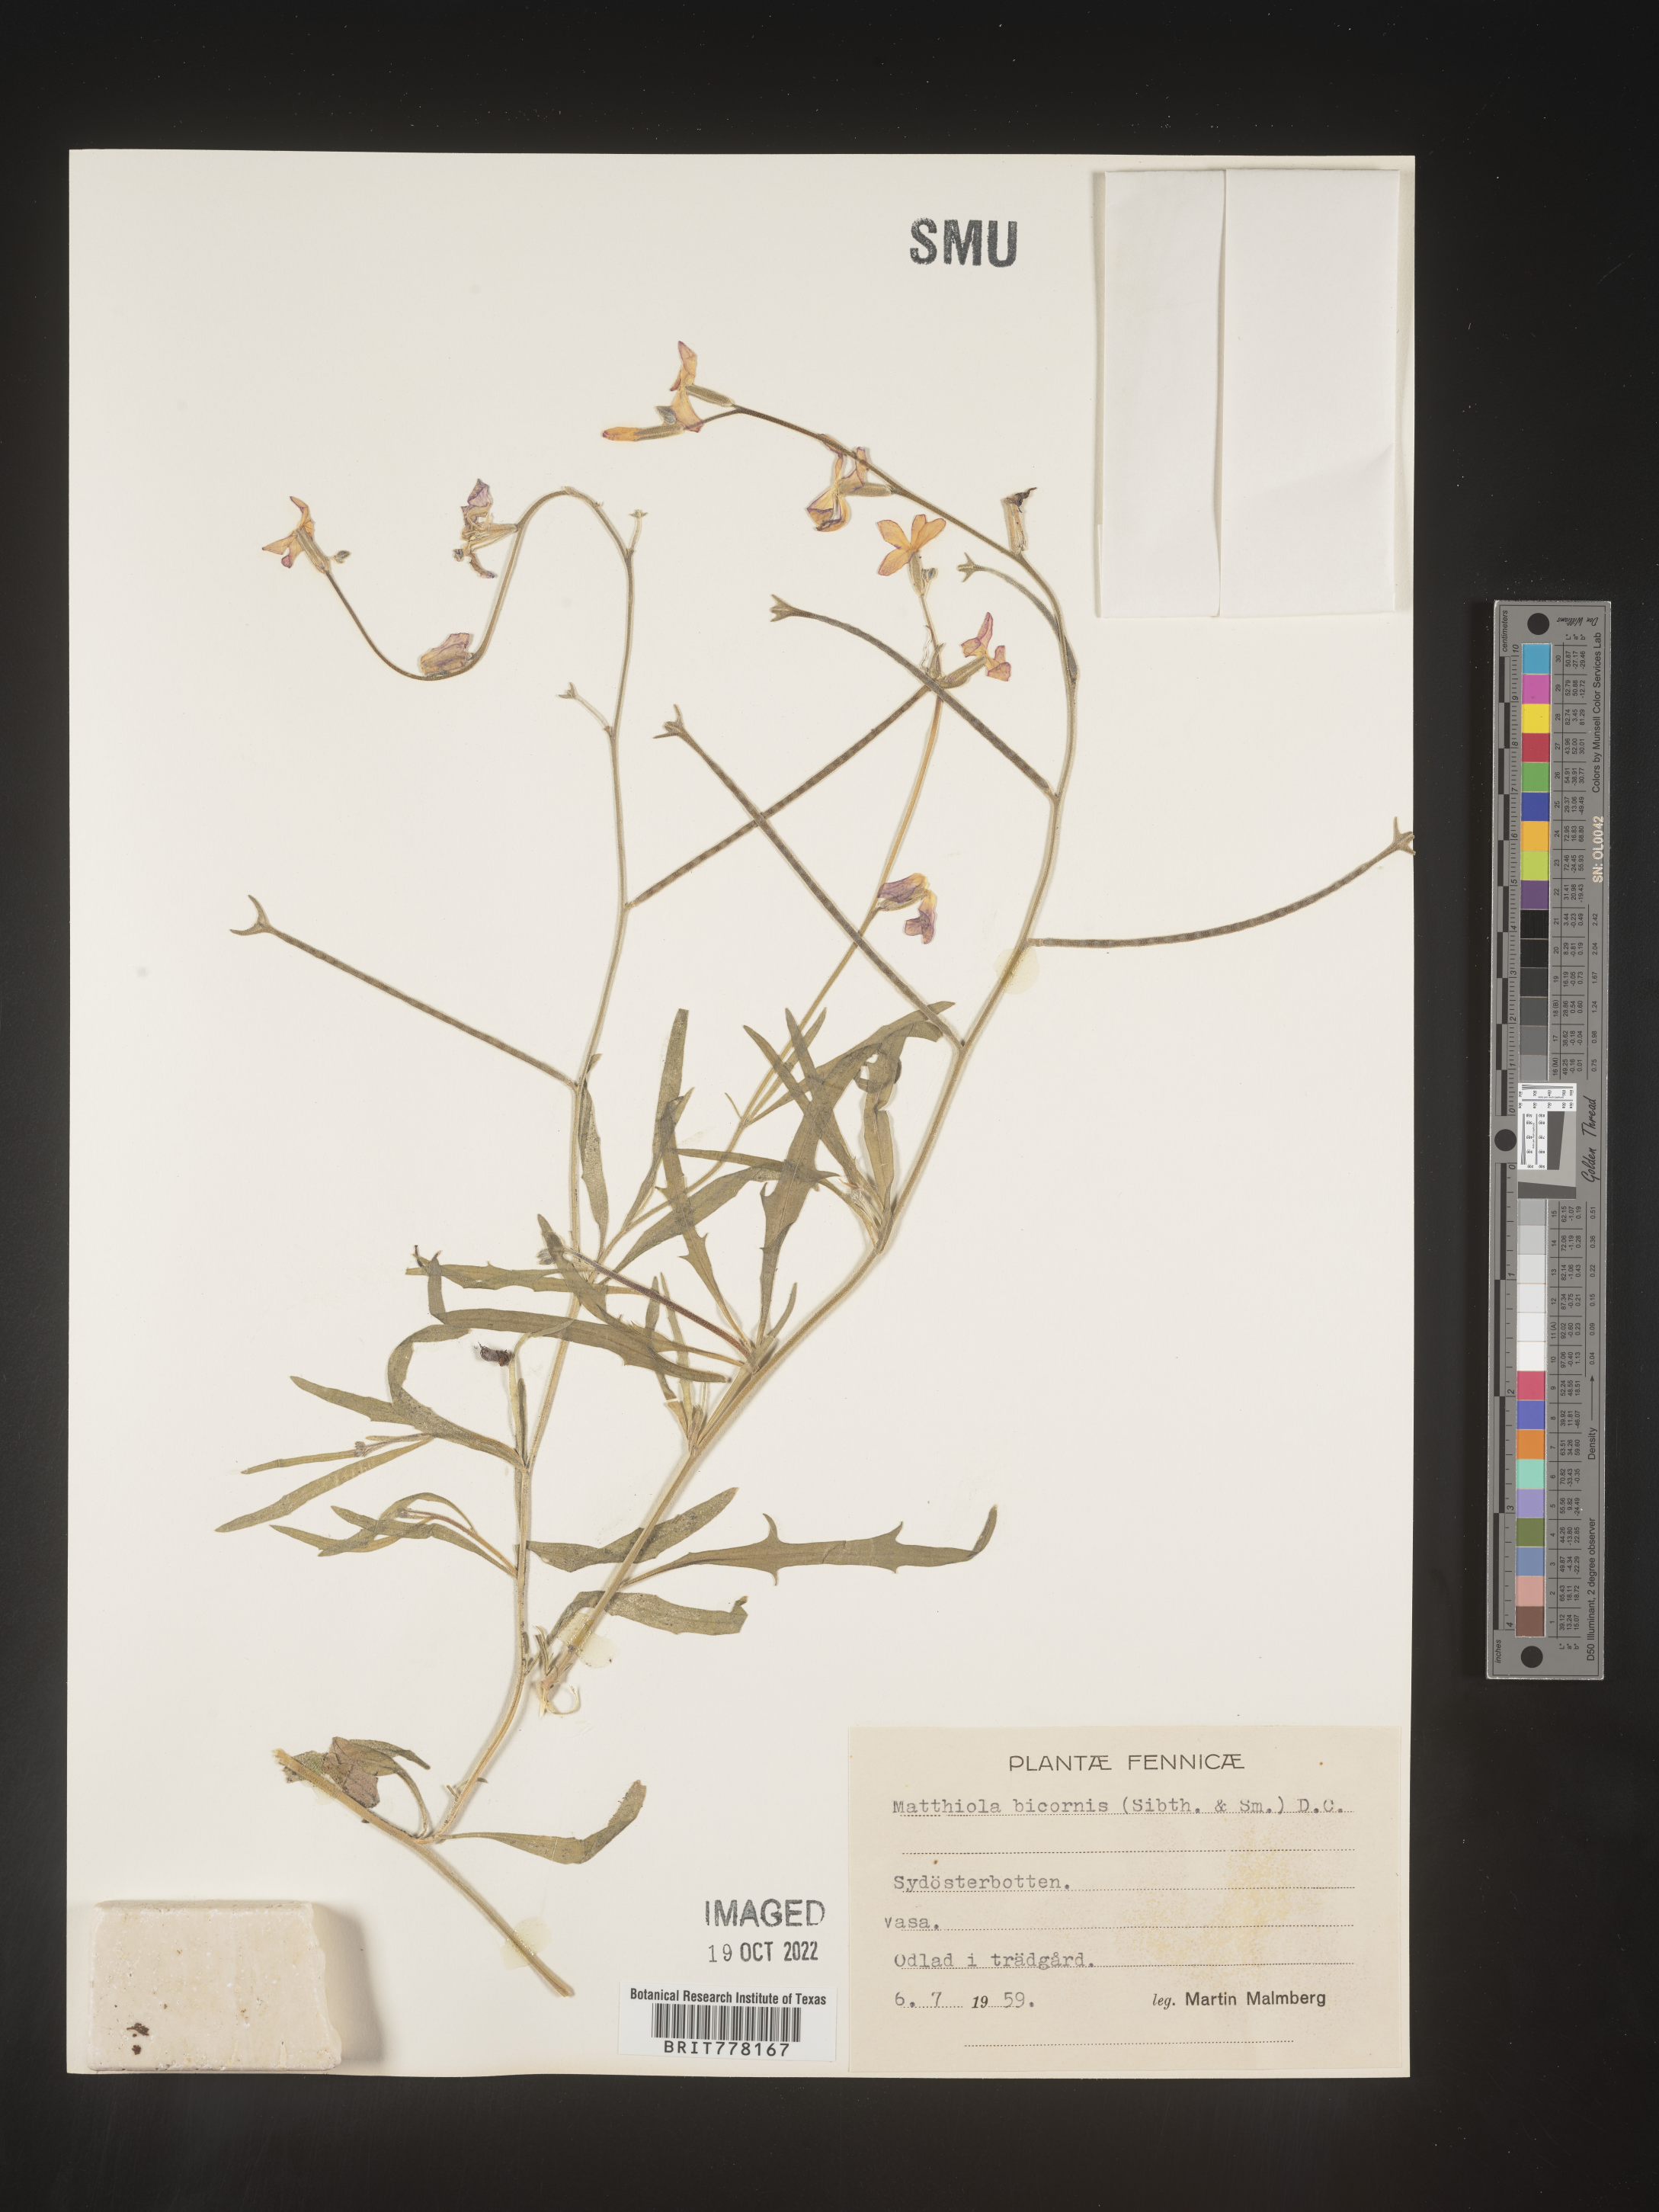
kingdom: Plantae
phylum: Tracheophyta
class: Magnoliopsida
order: Brassicales
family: Brassicaceae
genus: Matthiola
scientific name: Matthiola
